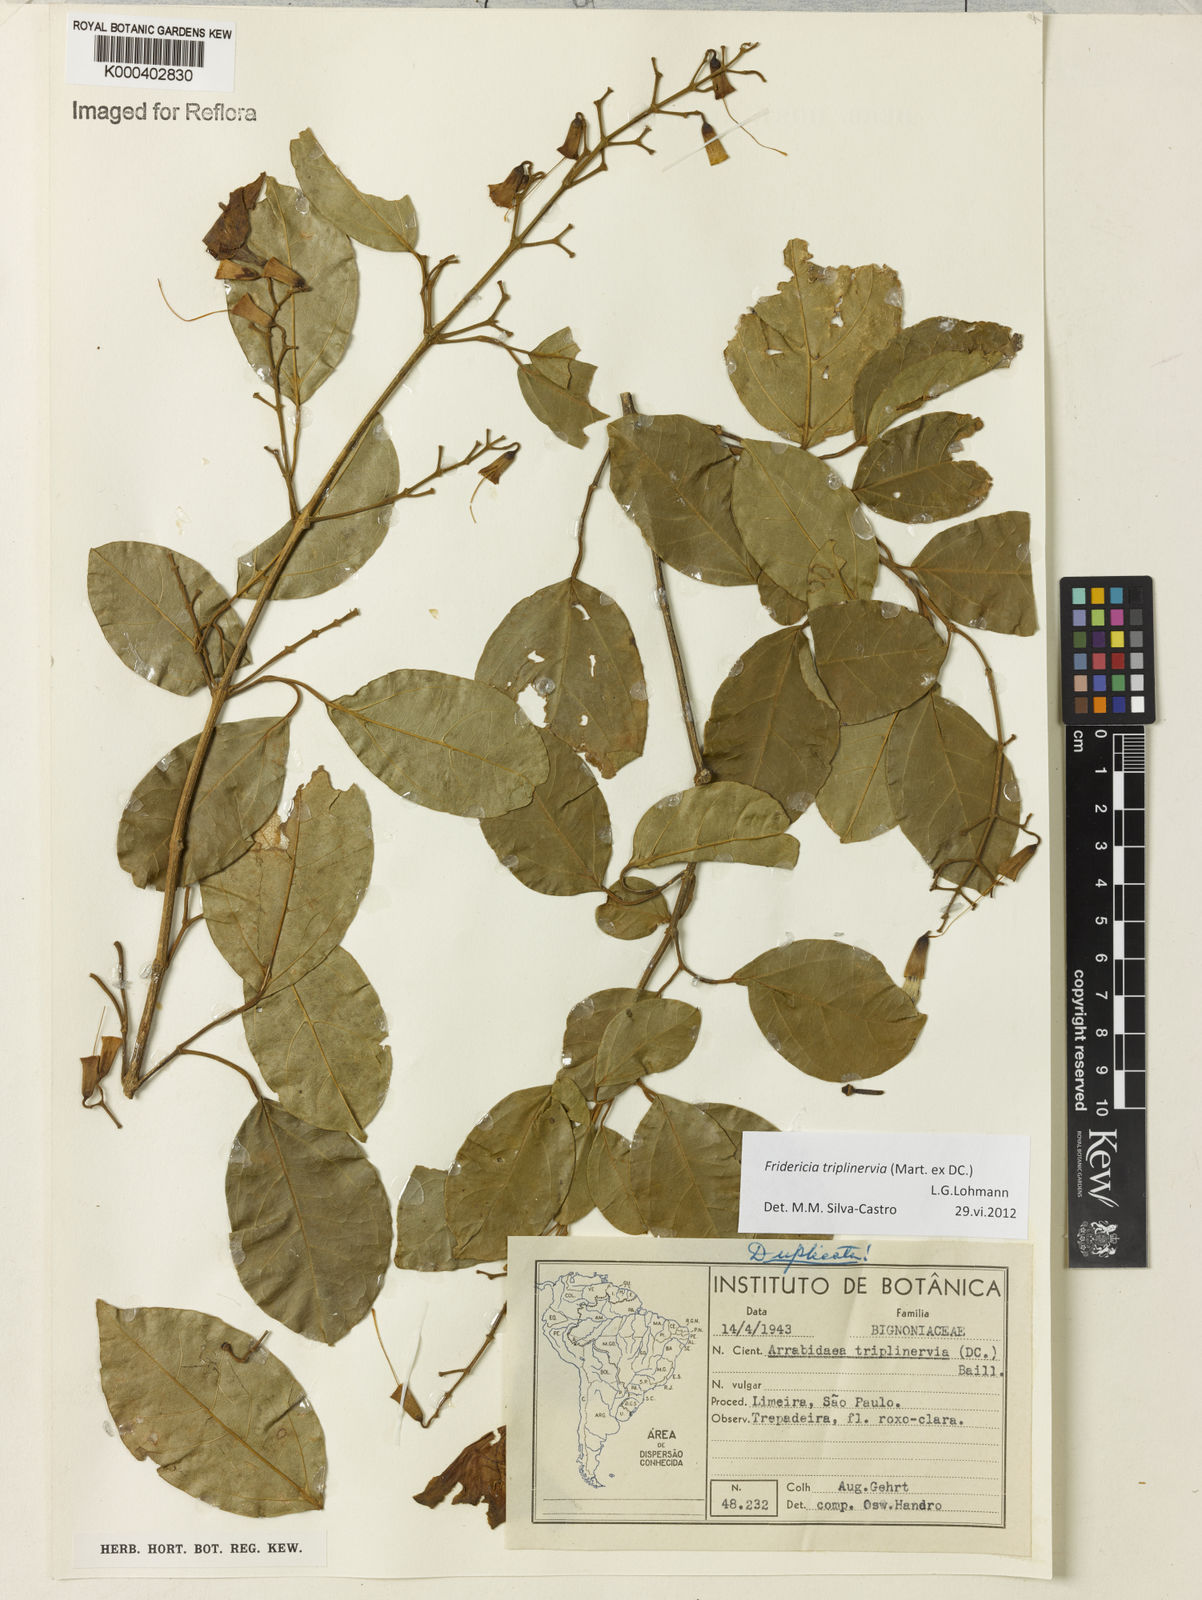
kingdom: Plantae
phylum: Tracheophyta
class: Magnoliopsida
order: Lamiales
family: Bignoniaceae
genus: Fridericia
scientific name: Fridericia triplinervia
